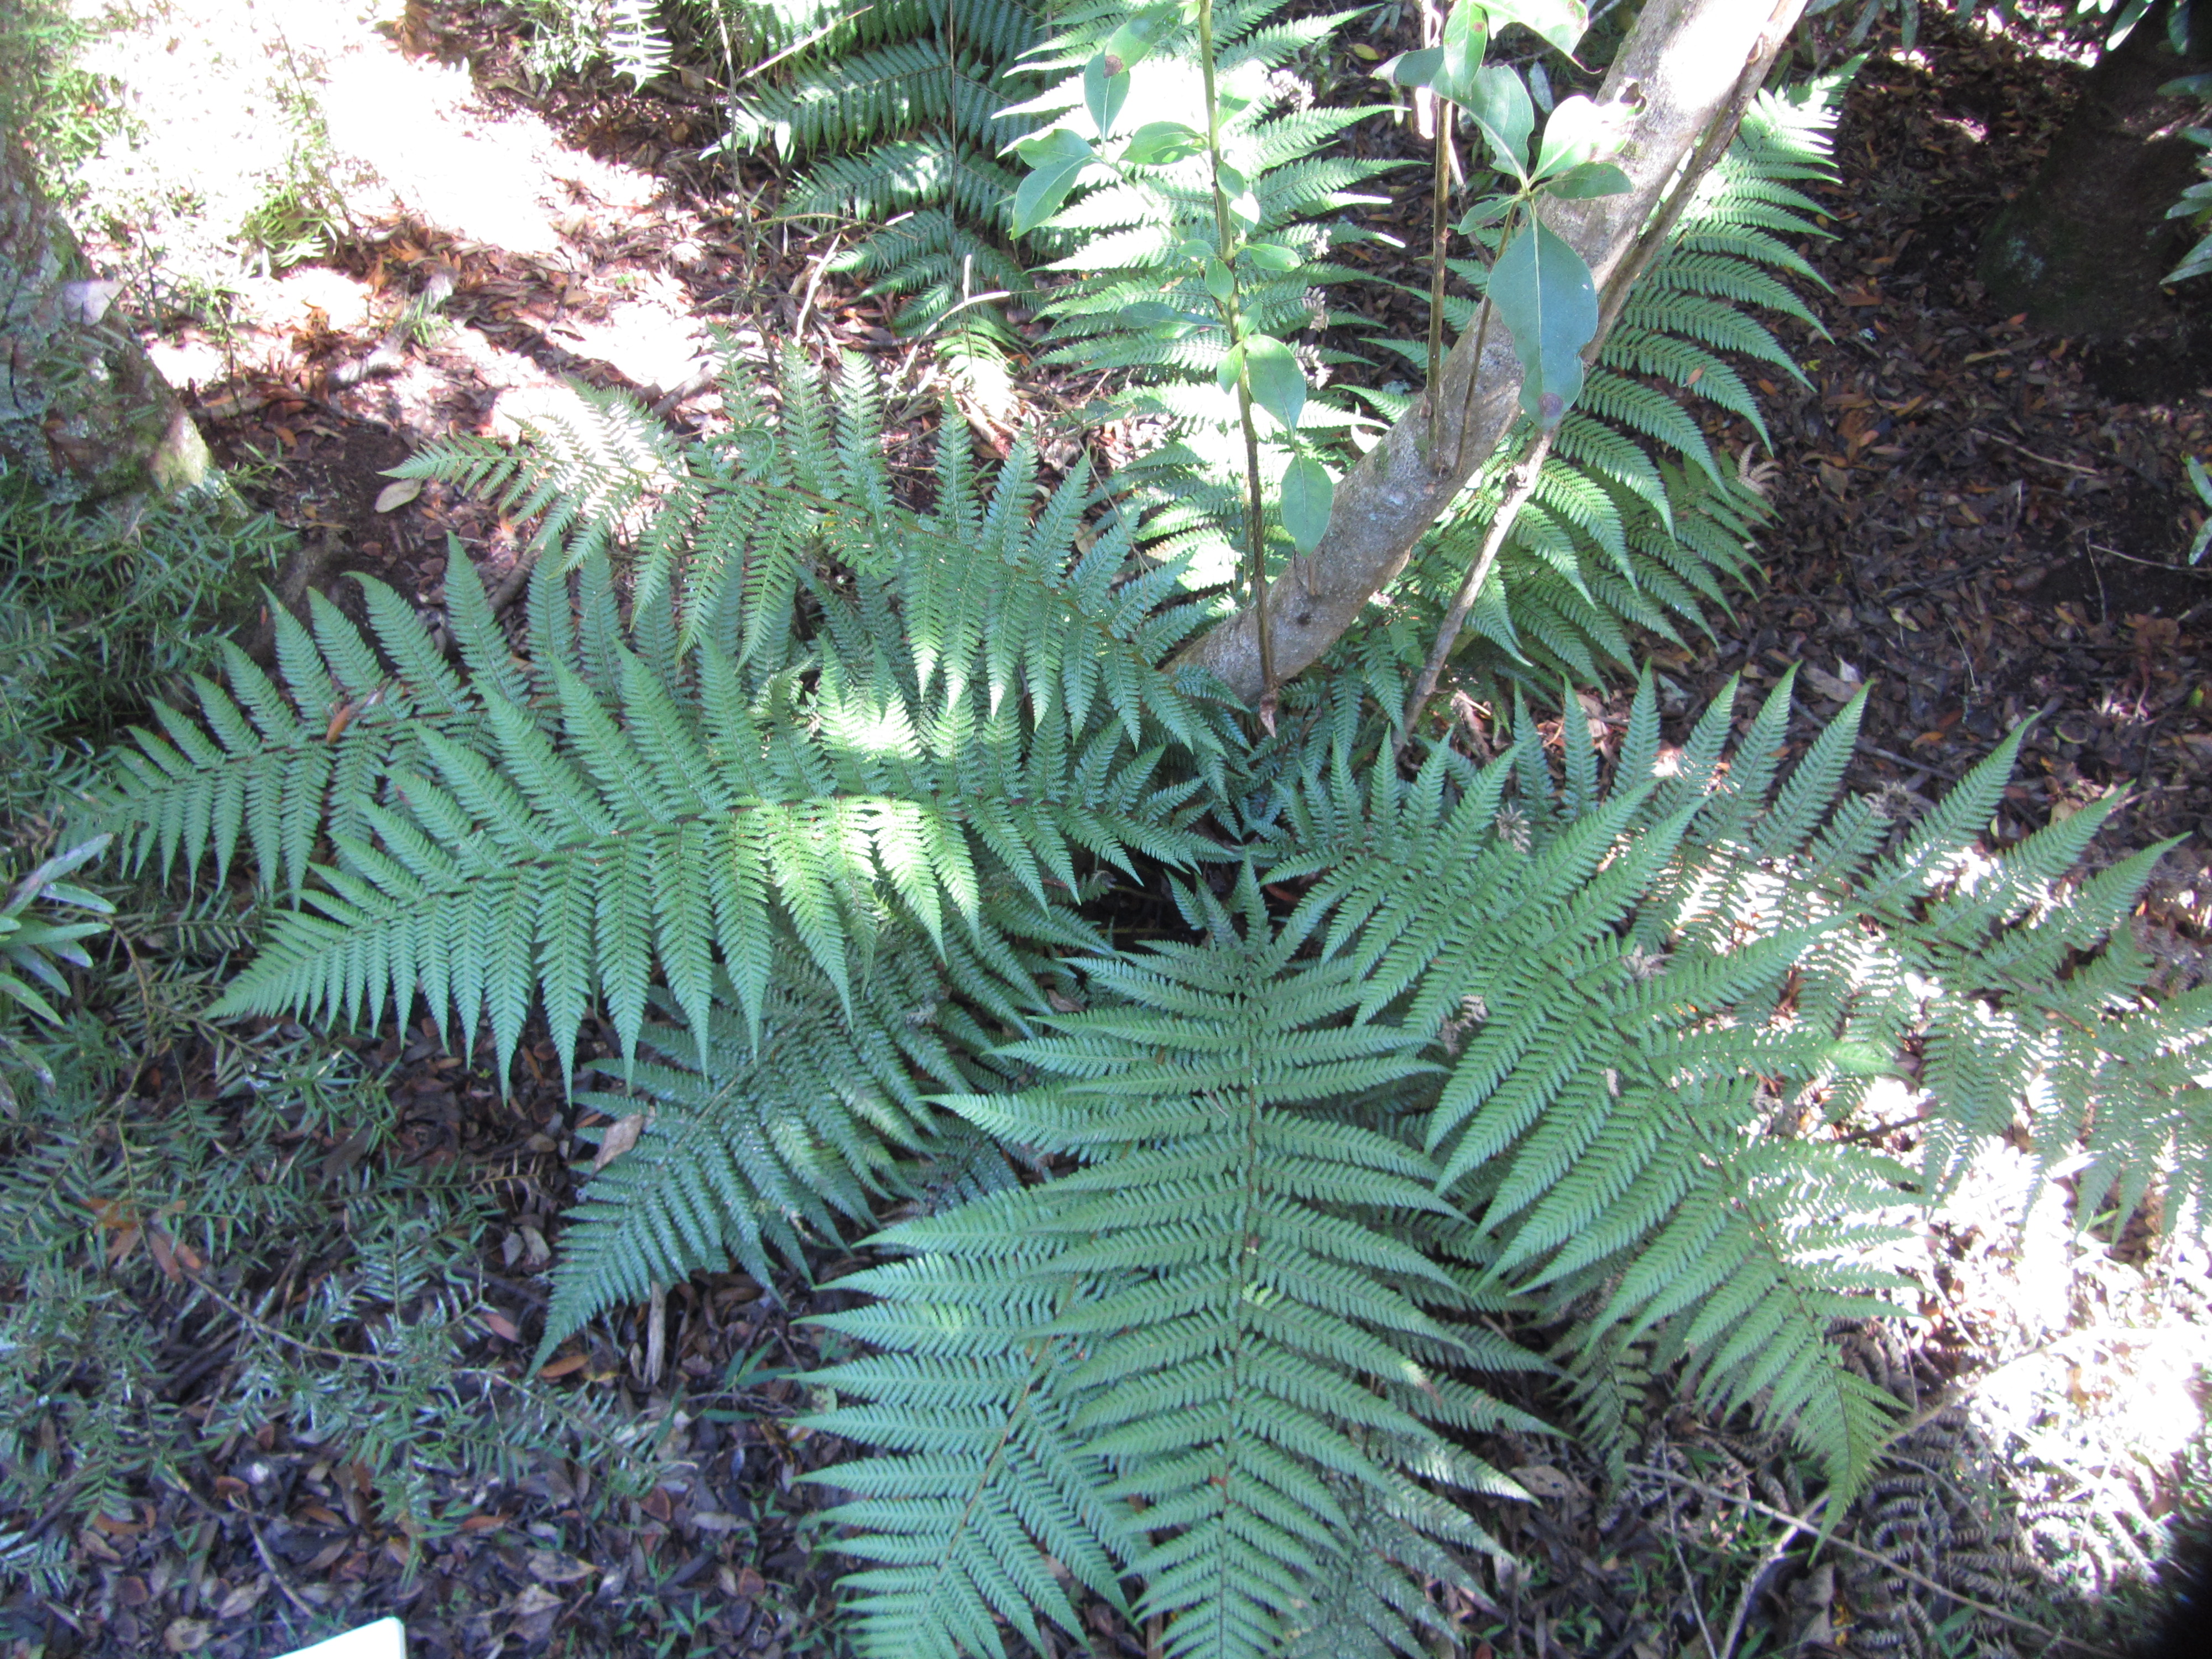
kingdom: Plantae
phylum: Tracheophyta
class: Polypodiopsida
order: Cyatheales
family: Dicksoniaceae
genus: Dicksonia
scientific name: Dicksonia squarrosa
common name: Hard treefern
